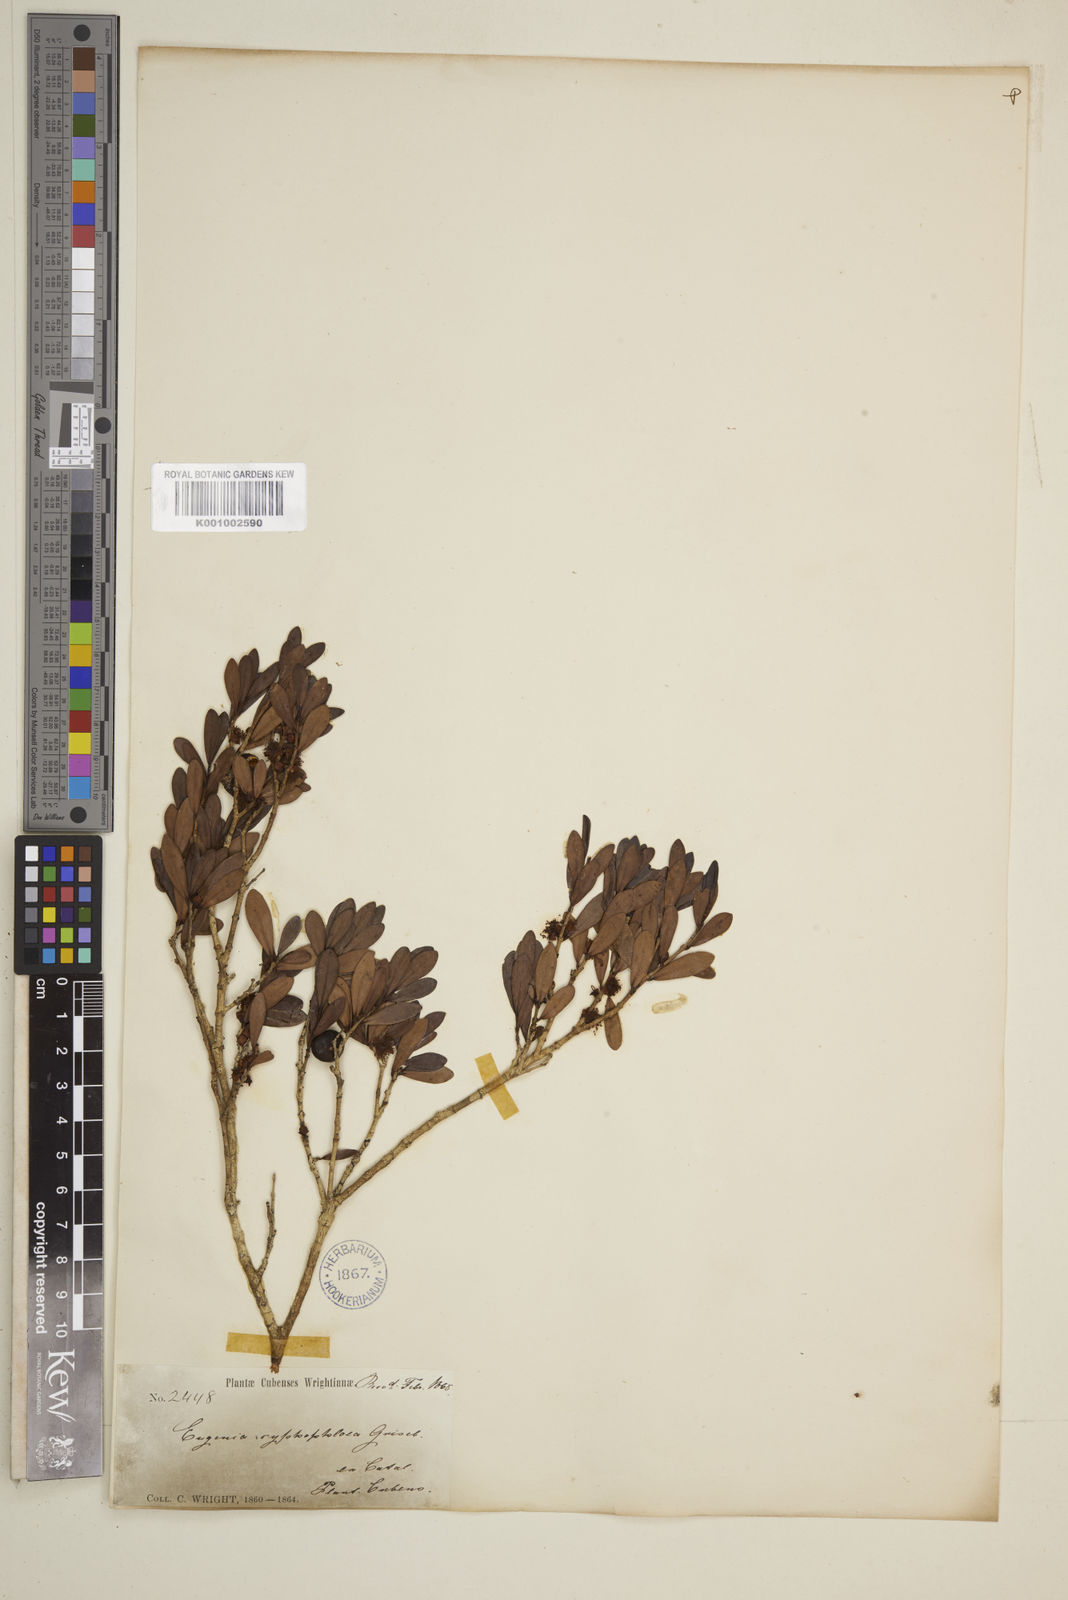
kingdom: Plantae
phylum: Tracheophyta
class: Magnoliopsida
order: Myrtales
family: Myrtaceae
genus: Eugenia
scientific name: Eugenia melanadenia
